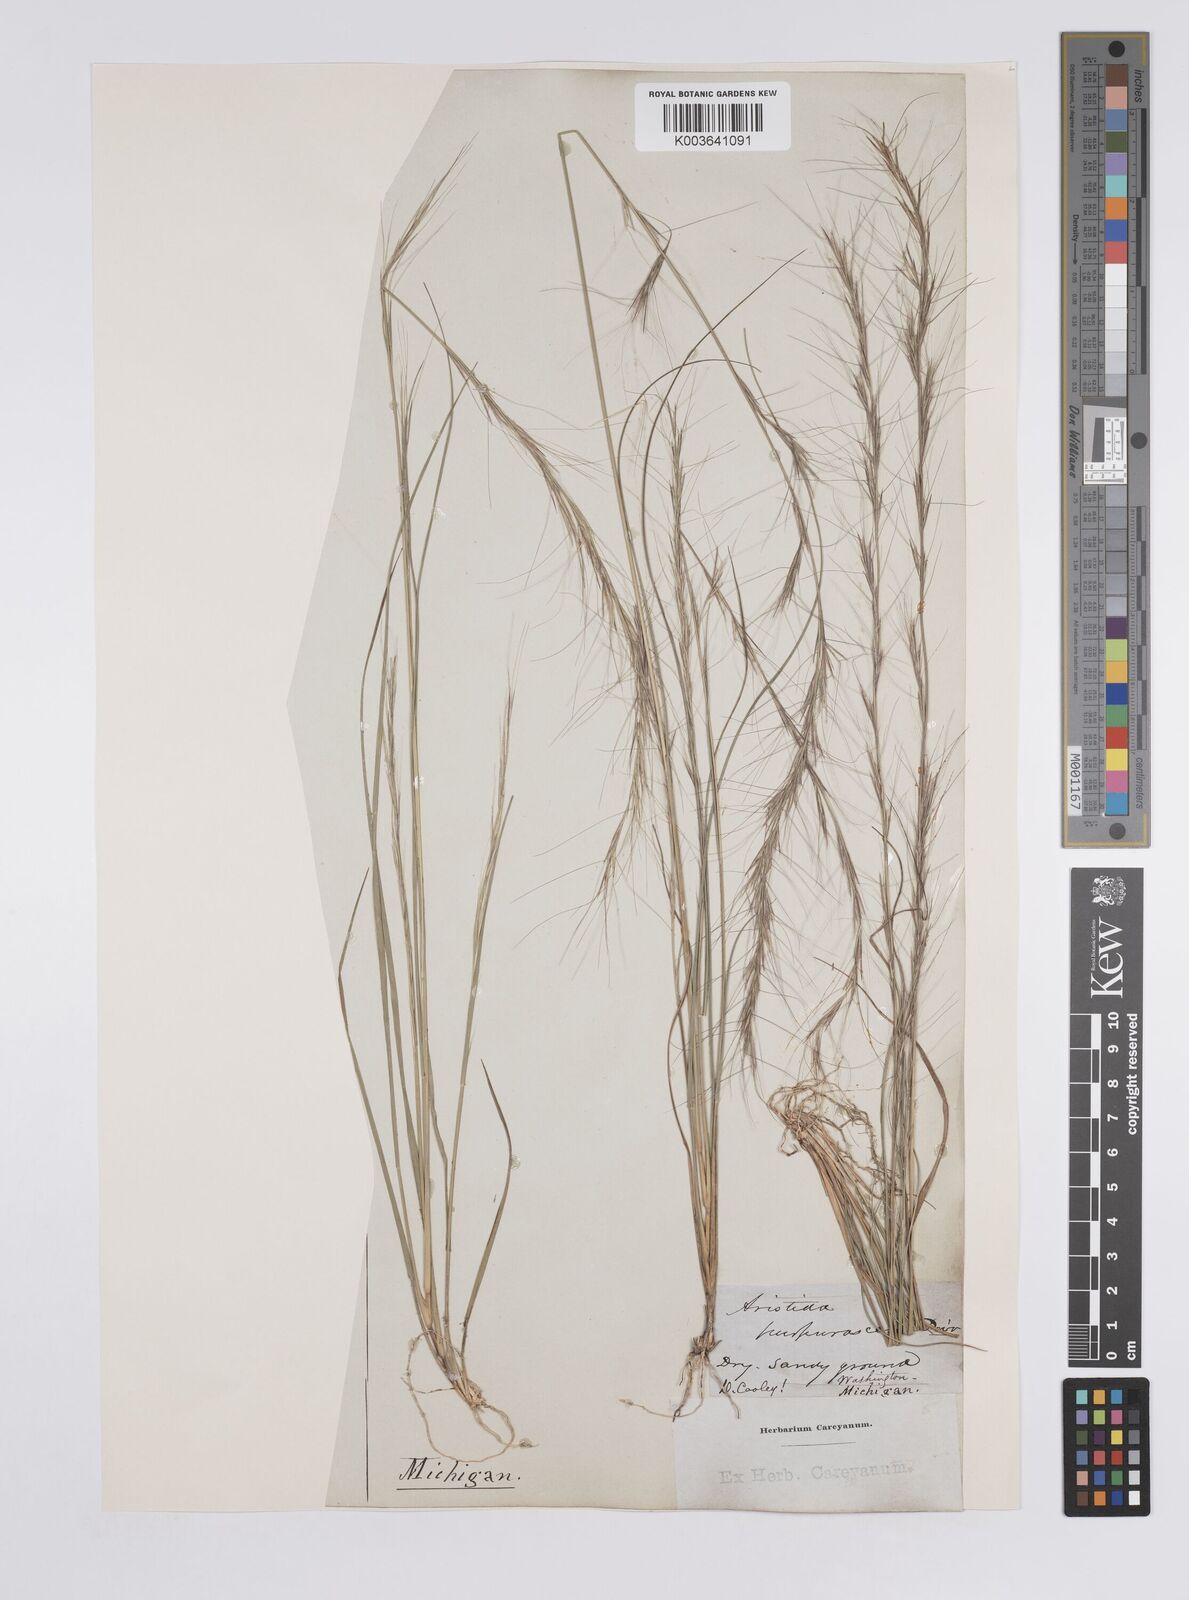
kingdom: Plantae
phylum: Tracheophyta
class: Liliopsida
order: Poales
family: Poaceae
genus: Aristida
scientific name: Aristida purpurascens
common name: Arrow-feather
